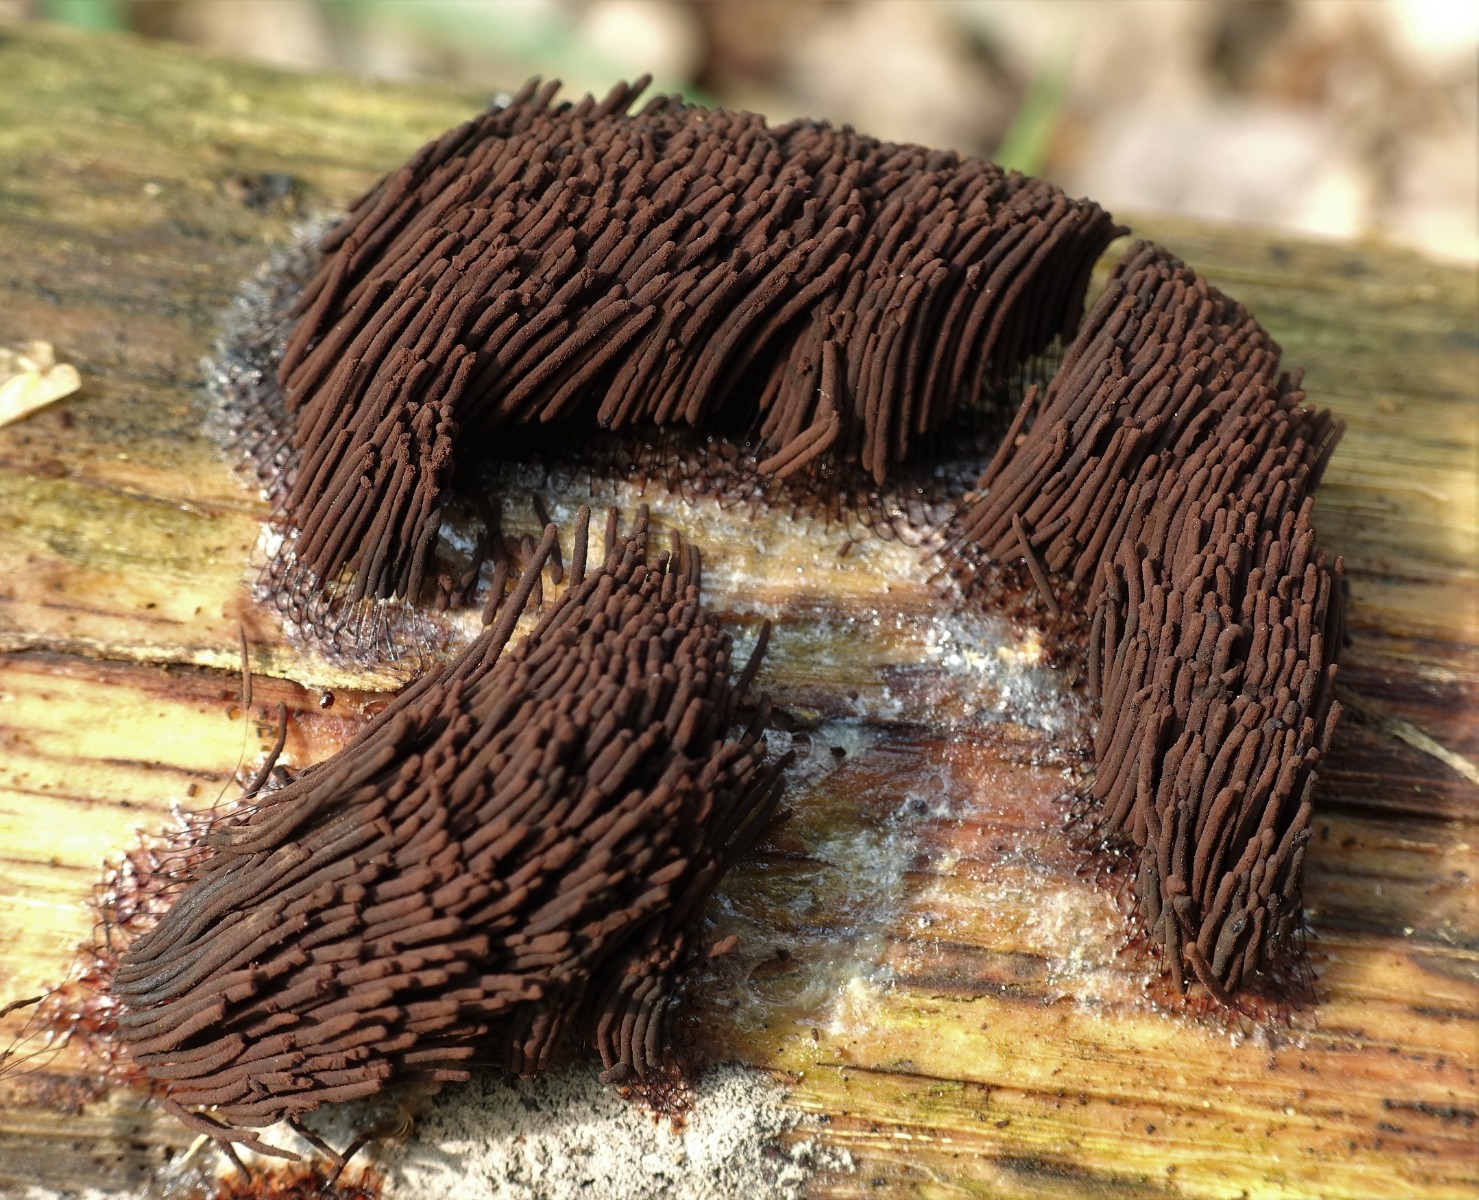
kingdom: Protozoa
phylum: Mycetozoa
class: Myxomycetes
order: Stemonitidales
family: Stemonitidaceae
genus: Stemonitis
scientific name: Stemonitis fusca
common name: sodbrun støvkølle
